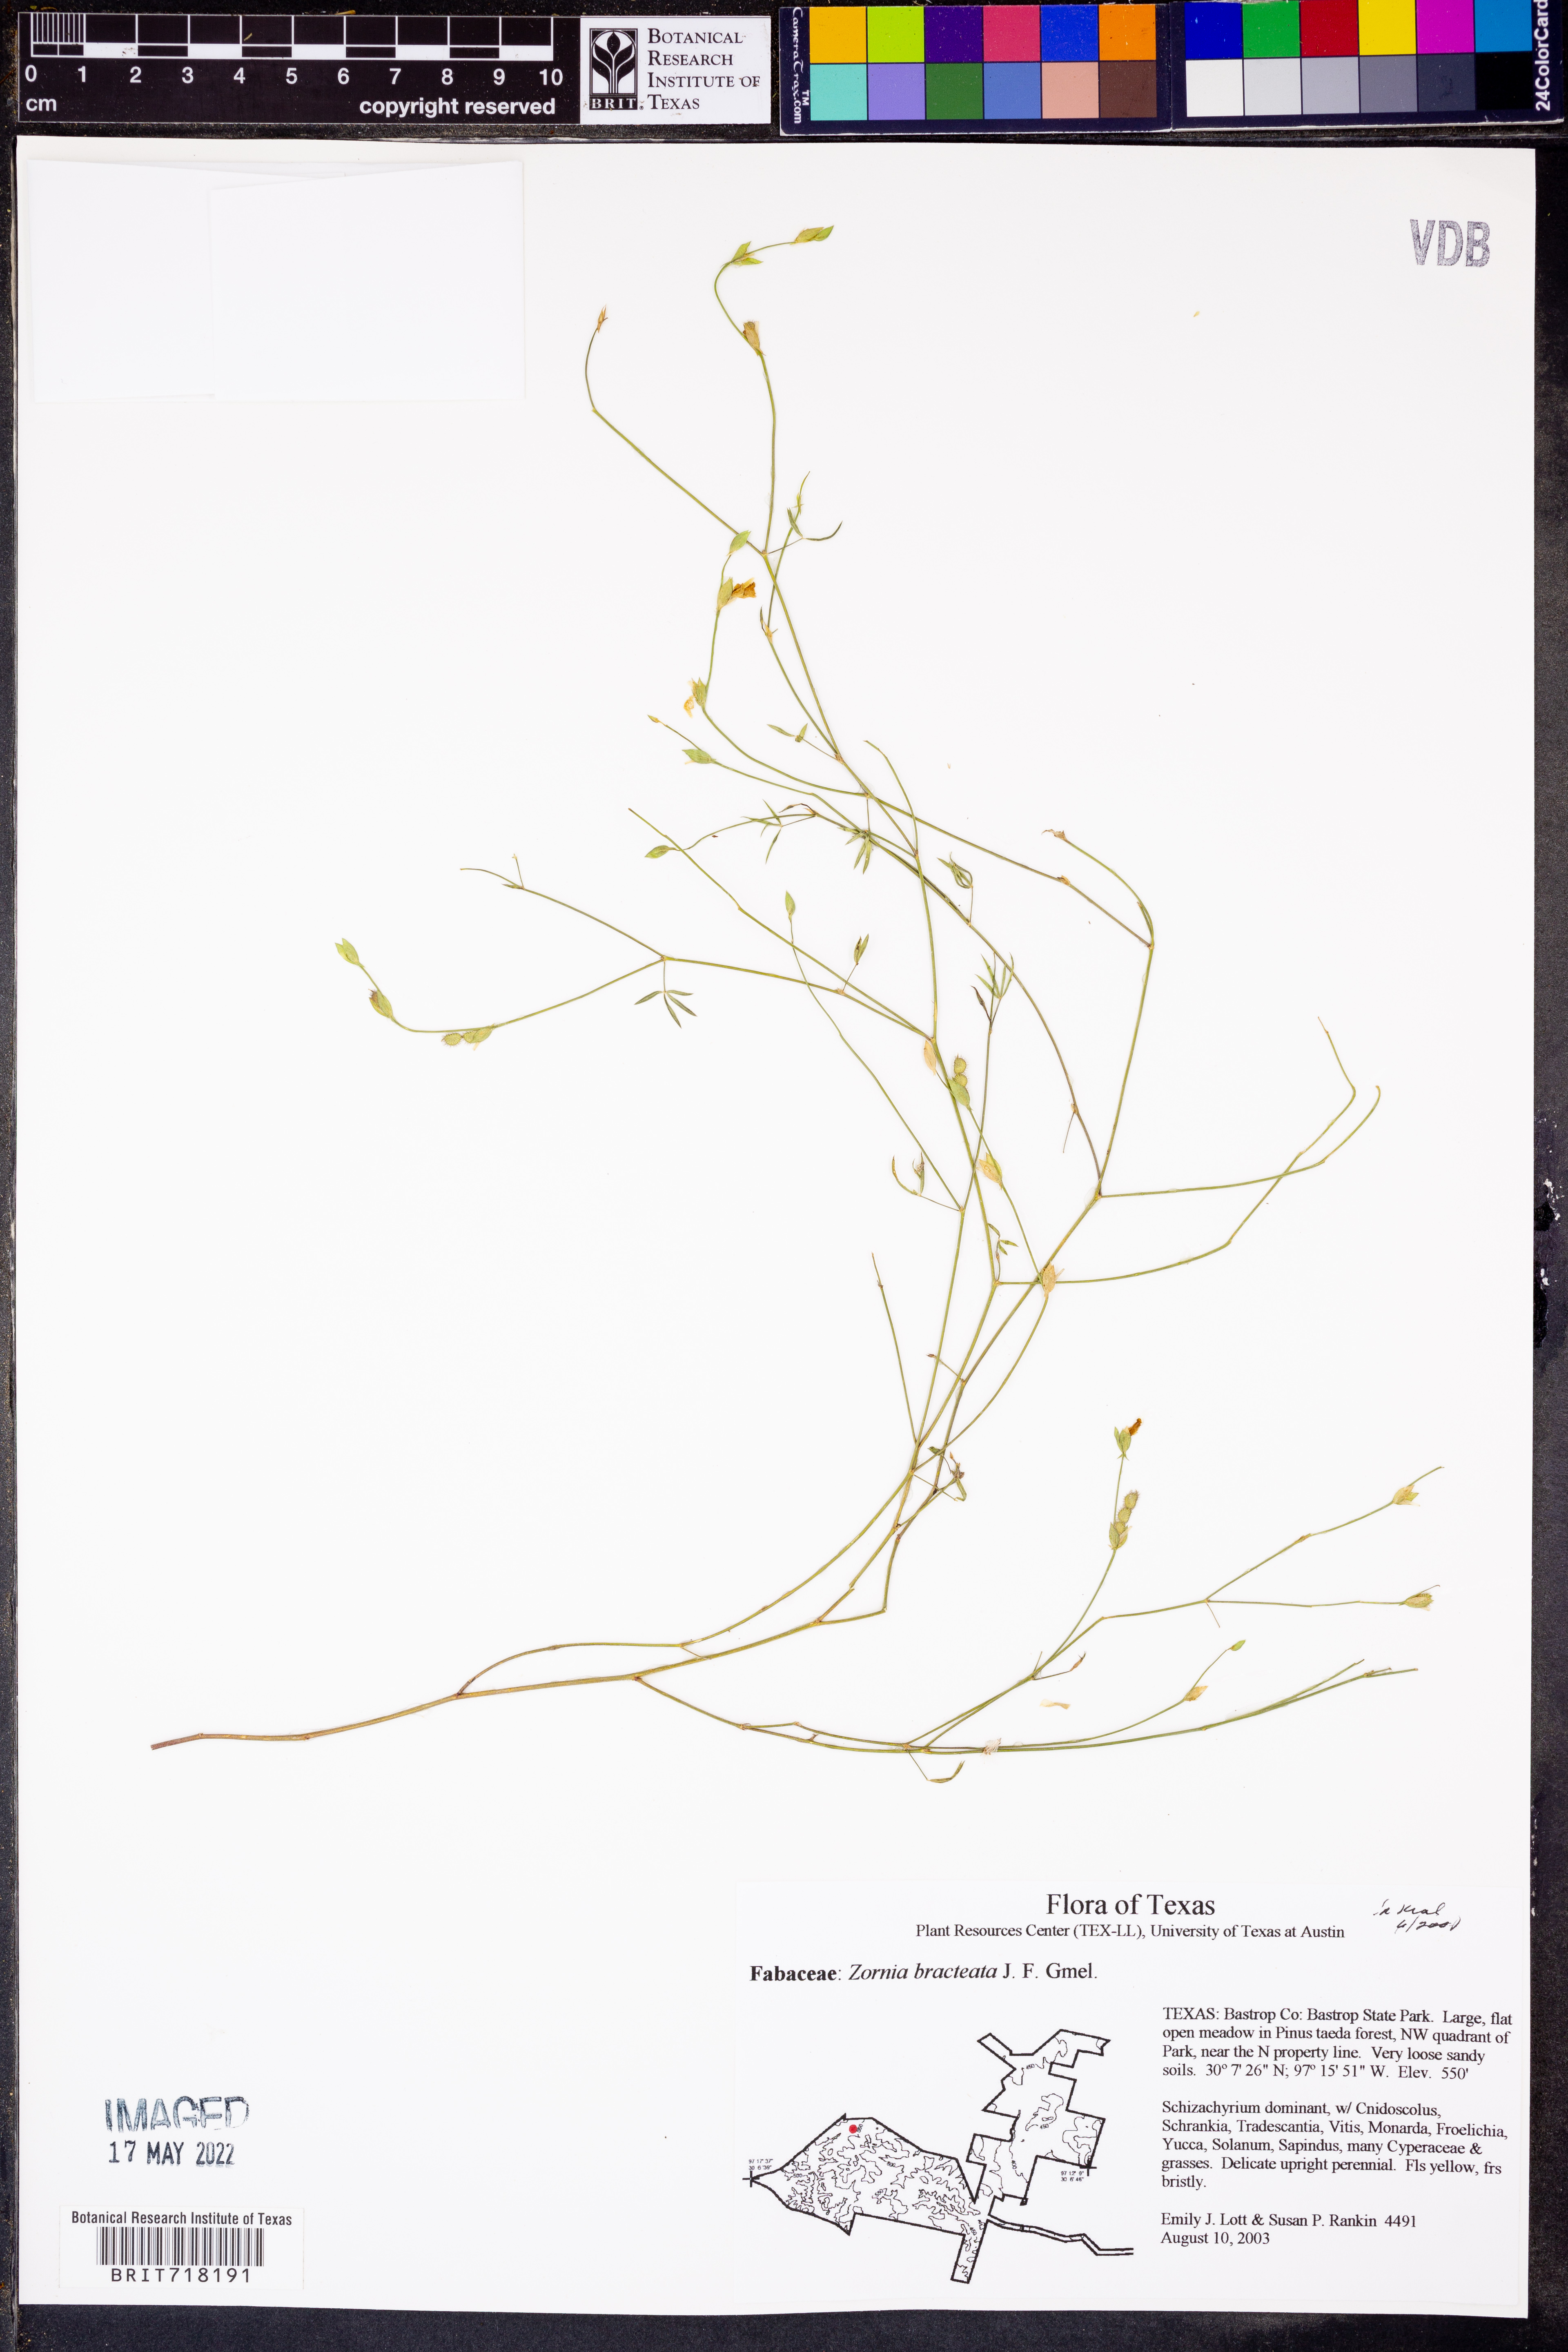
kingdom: Plantae
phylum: Tracheophyta
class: Magnoliopsida
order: Fabales
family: Fabaceae
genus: Zornia
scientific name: Zornia bracteata
